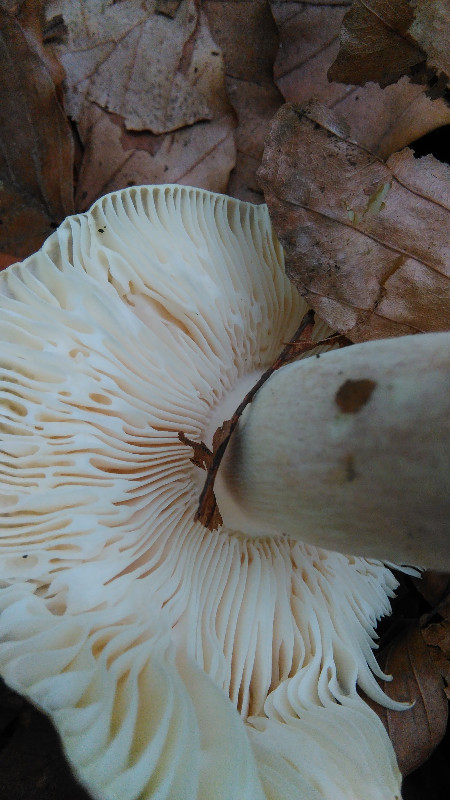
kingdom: Fungi
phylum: Basidiomycota
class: Agaricomycetes
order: Russulales
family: Russulaceae
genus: Russula
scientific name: Russula violeipes
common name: ferskengul skørhat
